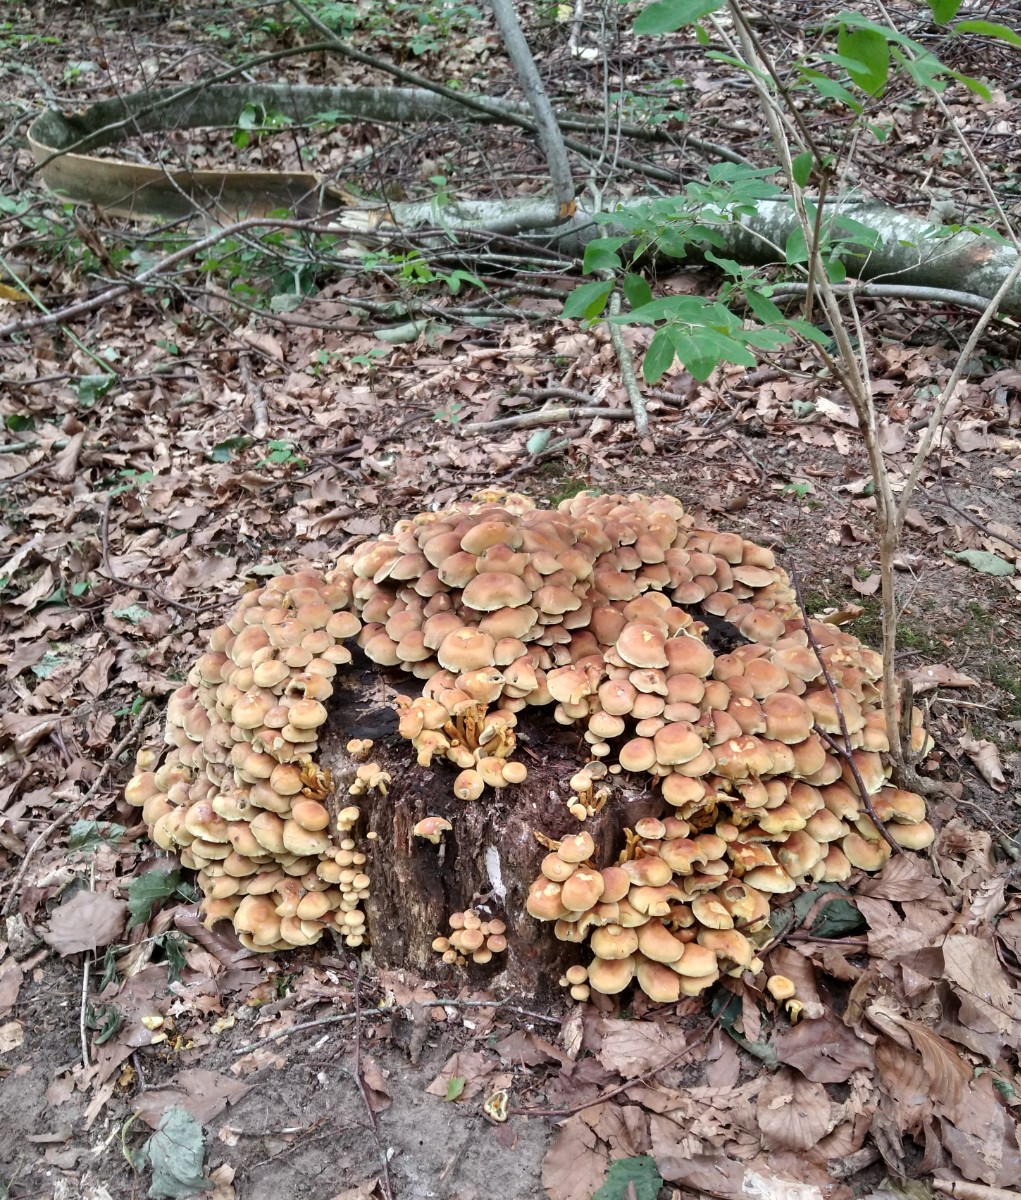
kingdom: Fungi
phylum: Basidiomycota
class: Agaricomycetes
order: Agaricales
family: Strophariaceae
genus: Hypholoma
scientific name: Hypholoma fasciculare
